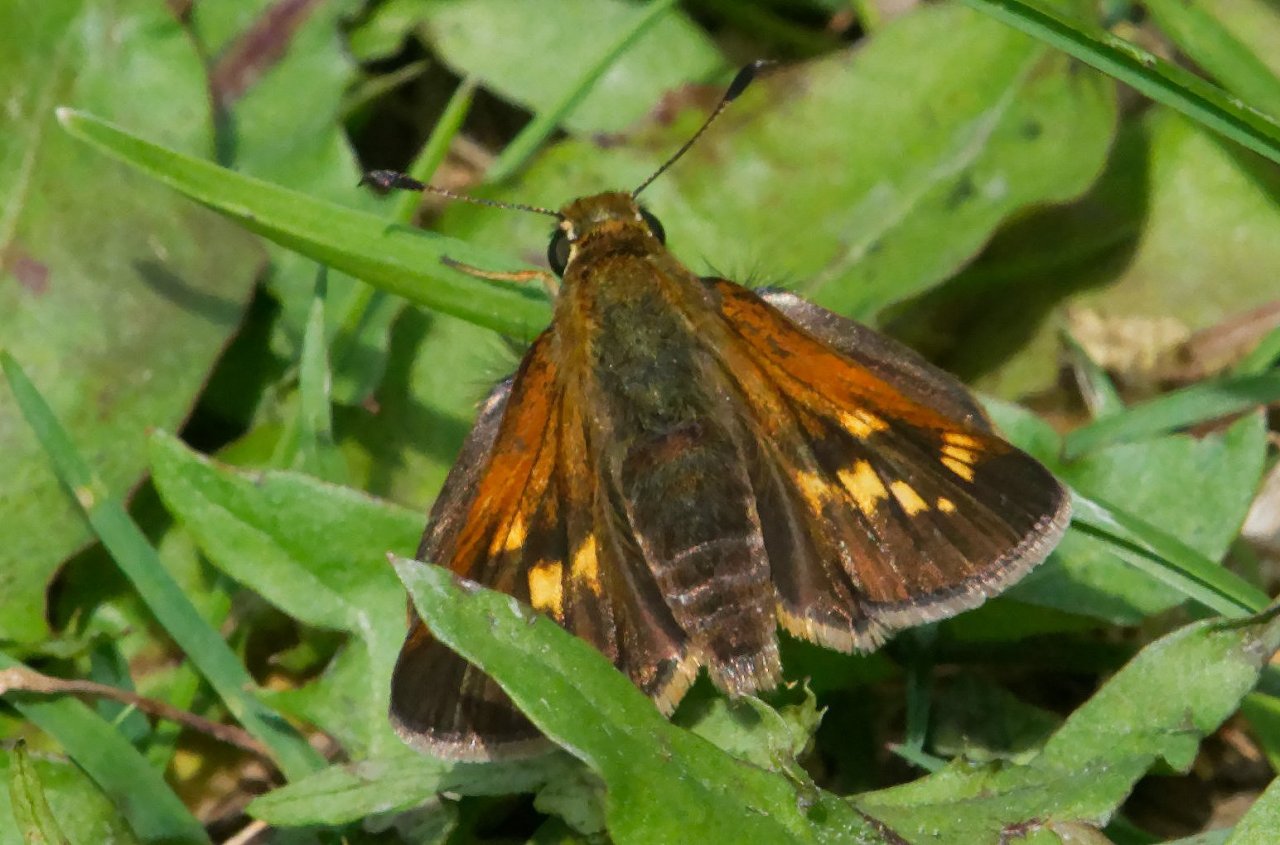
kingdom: Animalia
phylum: Arthropoda
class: Insecta
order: Lepidoptera
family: Hesperiidae
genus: Polites
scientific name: Polites coras
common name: Peck's Skipper
